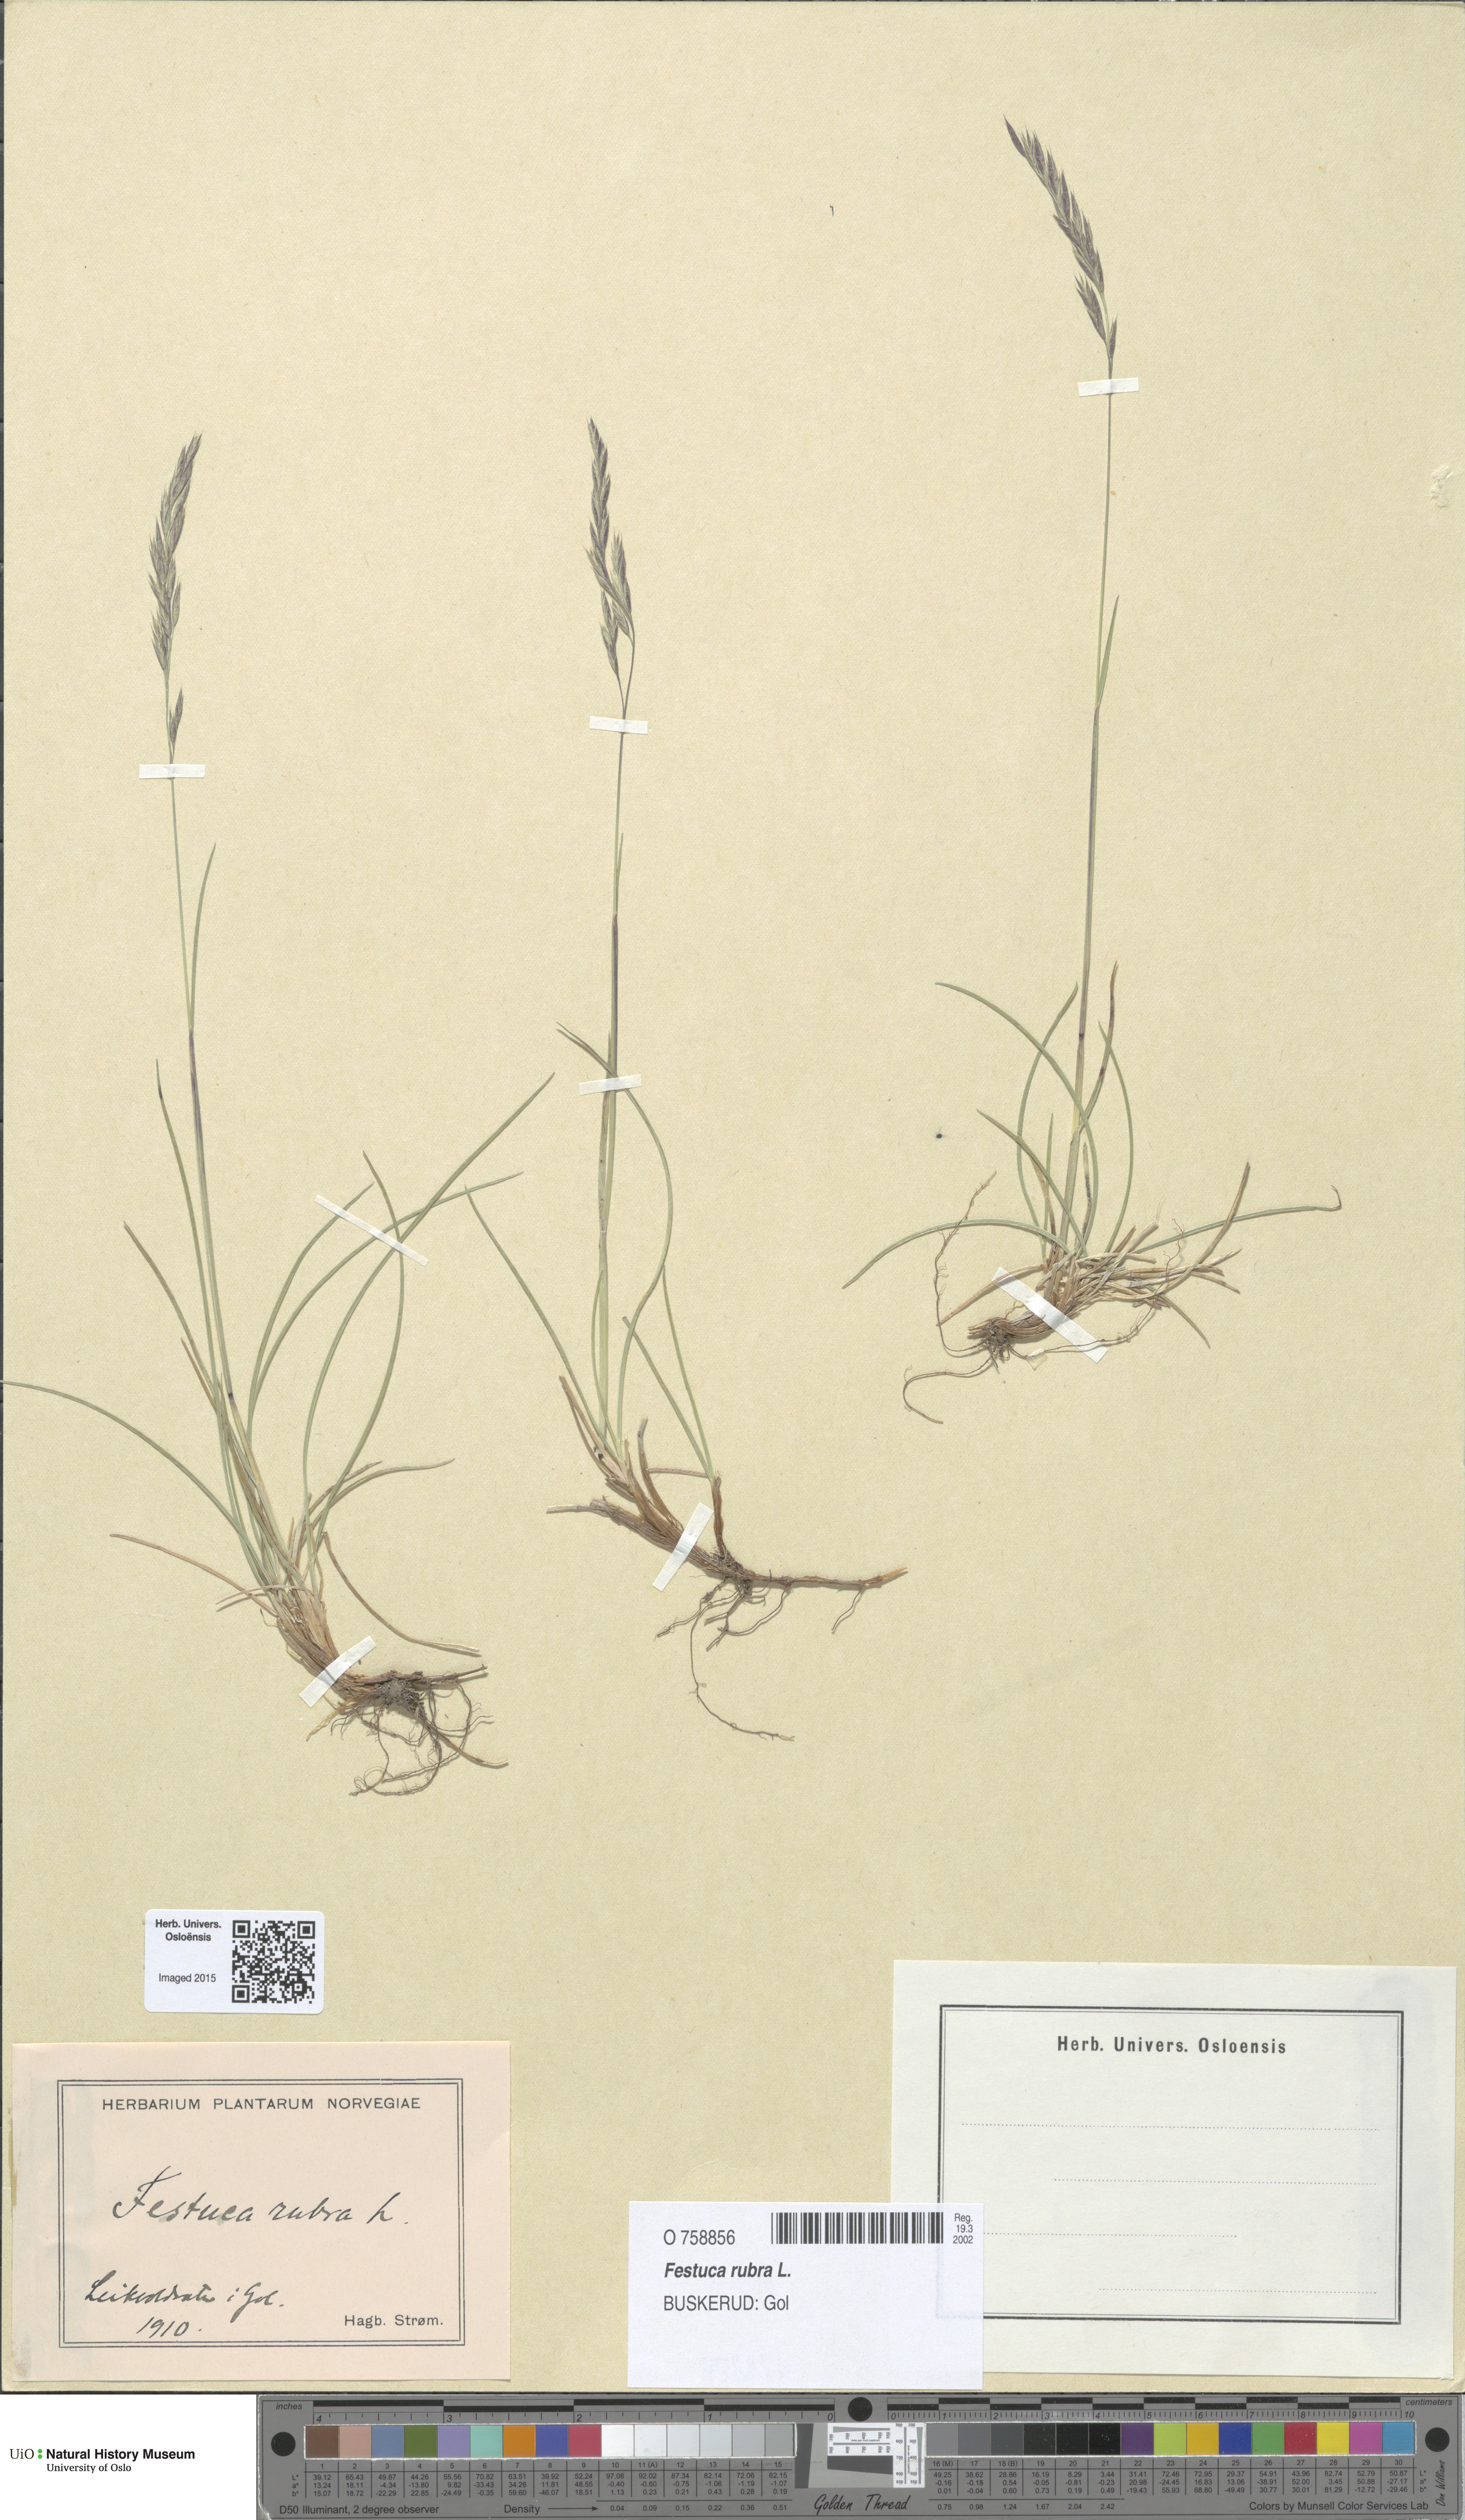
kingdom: Plantae
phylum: Tracheophyta
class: Liliopsida
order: Poales
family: Poaceae
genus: Festuca
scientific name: Festuca rubra
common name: Red fescue
